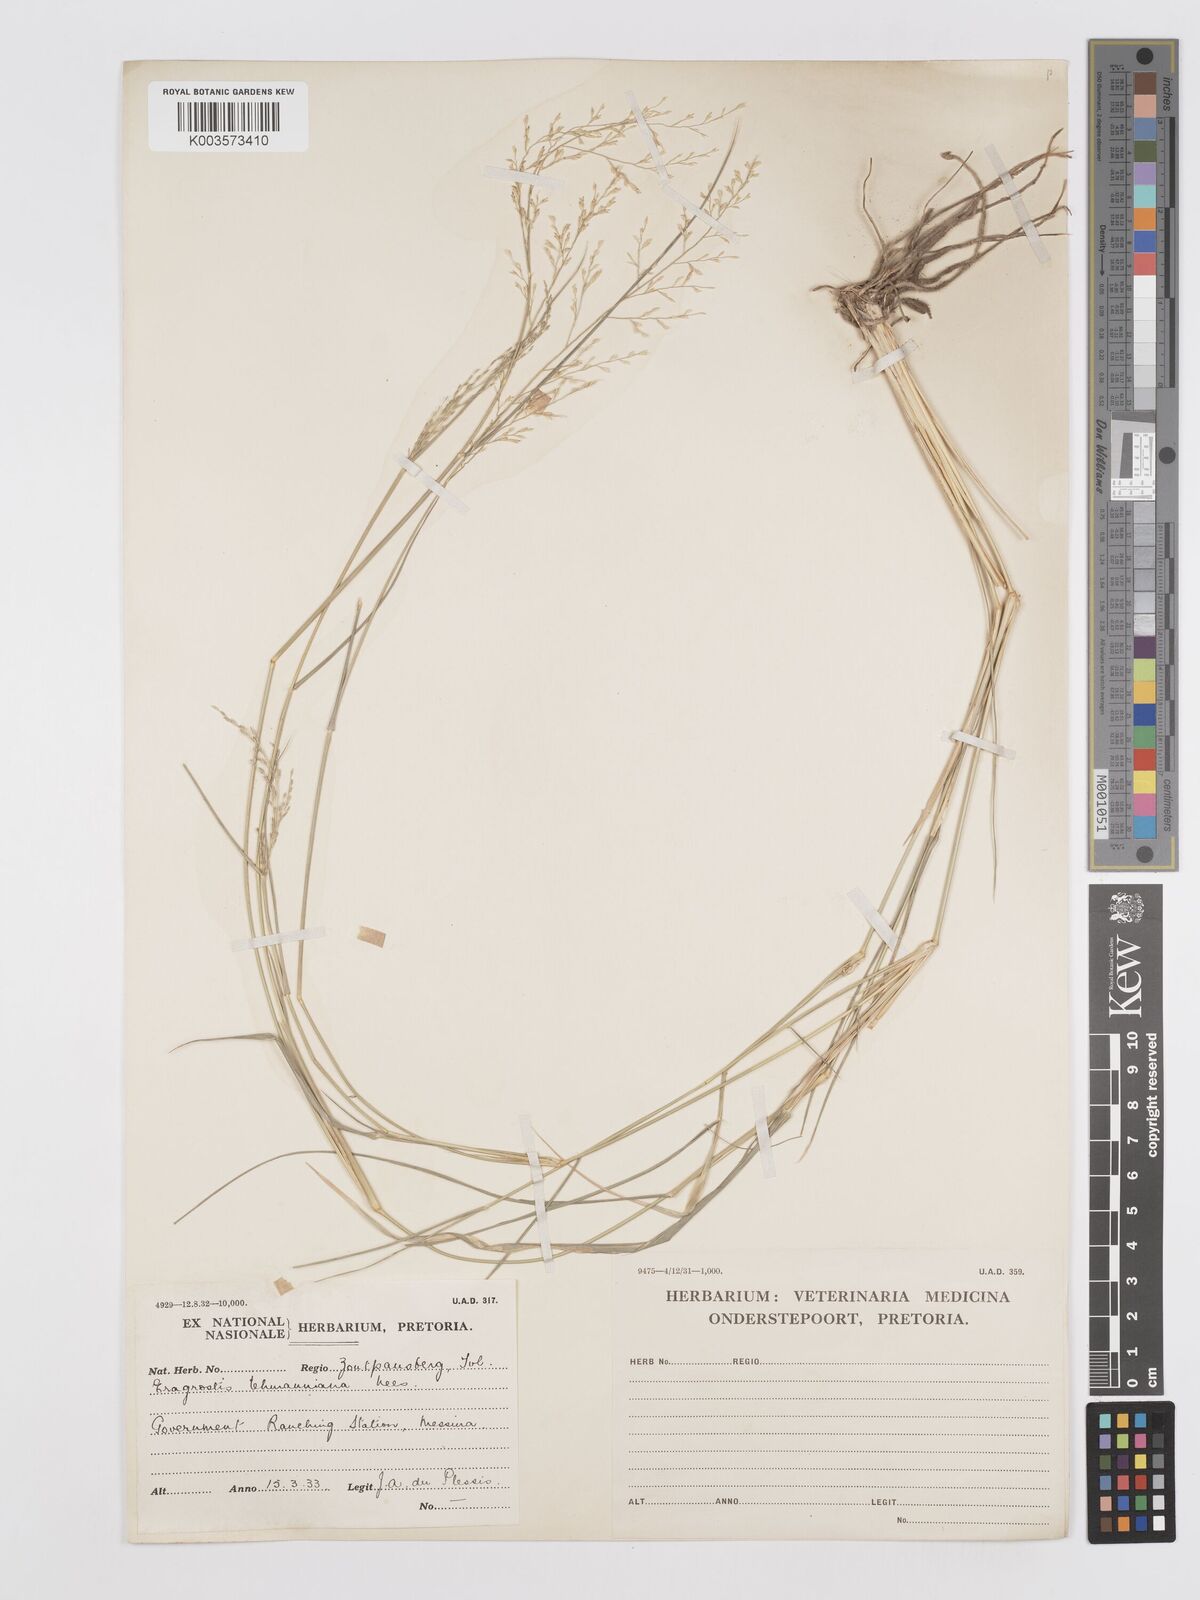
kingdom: Plantae
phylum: Tracheophyta
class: Liliopsida
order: Poales
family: Poaceae
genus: Eragrostis
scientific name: Eragrostis lehmanniana
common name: Lehmann lovegrass
